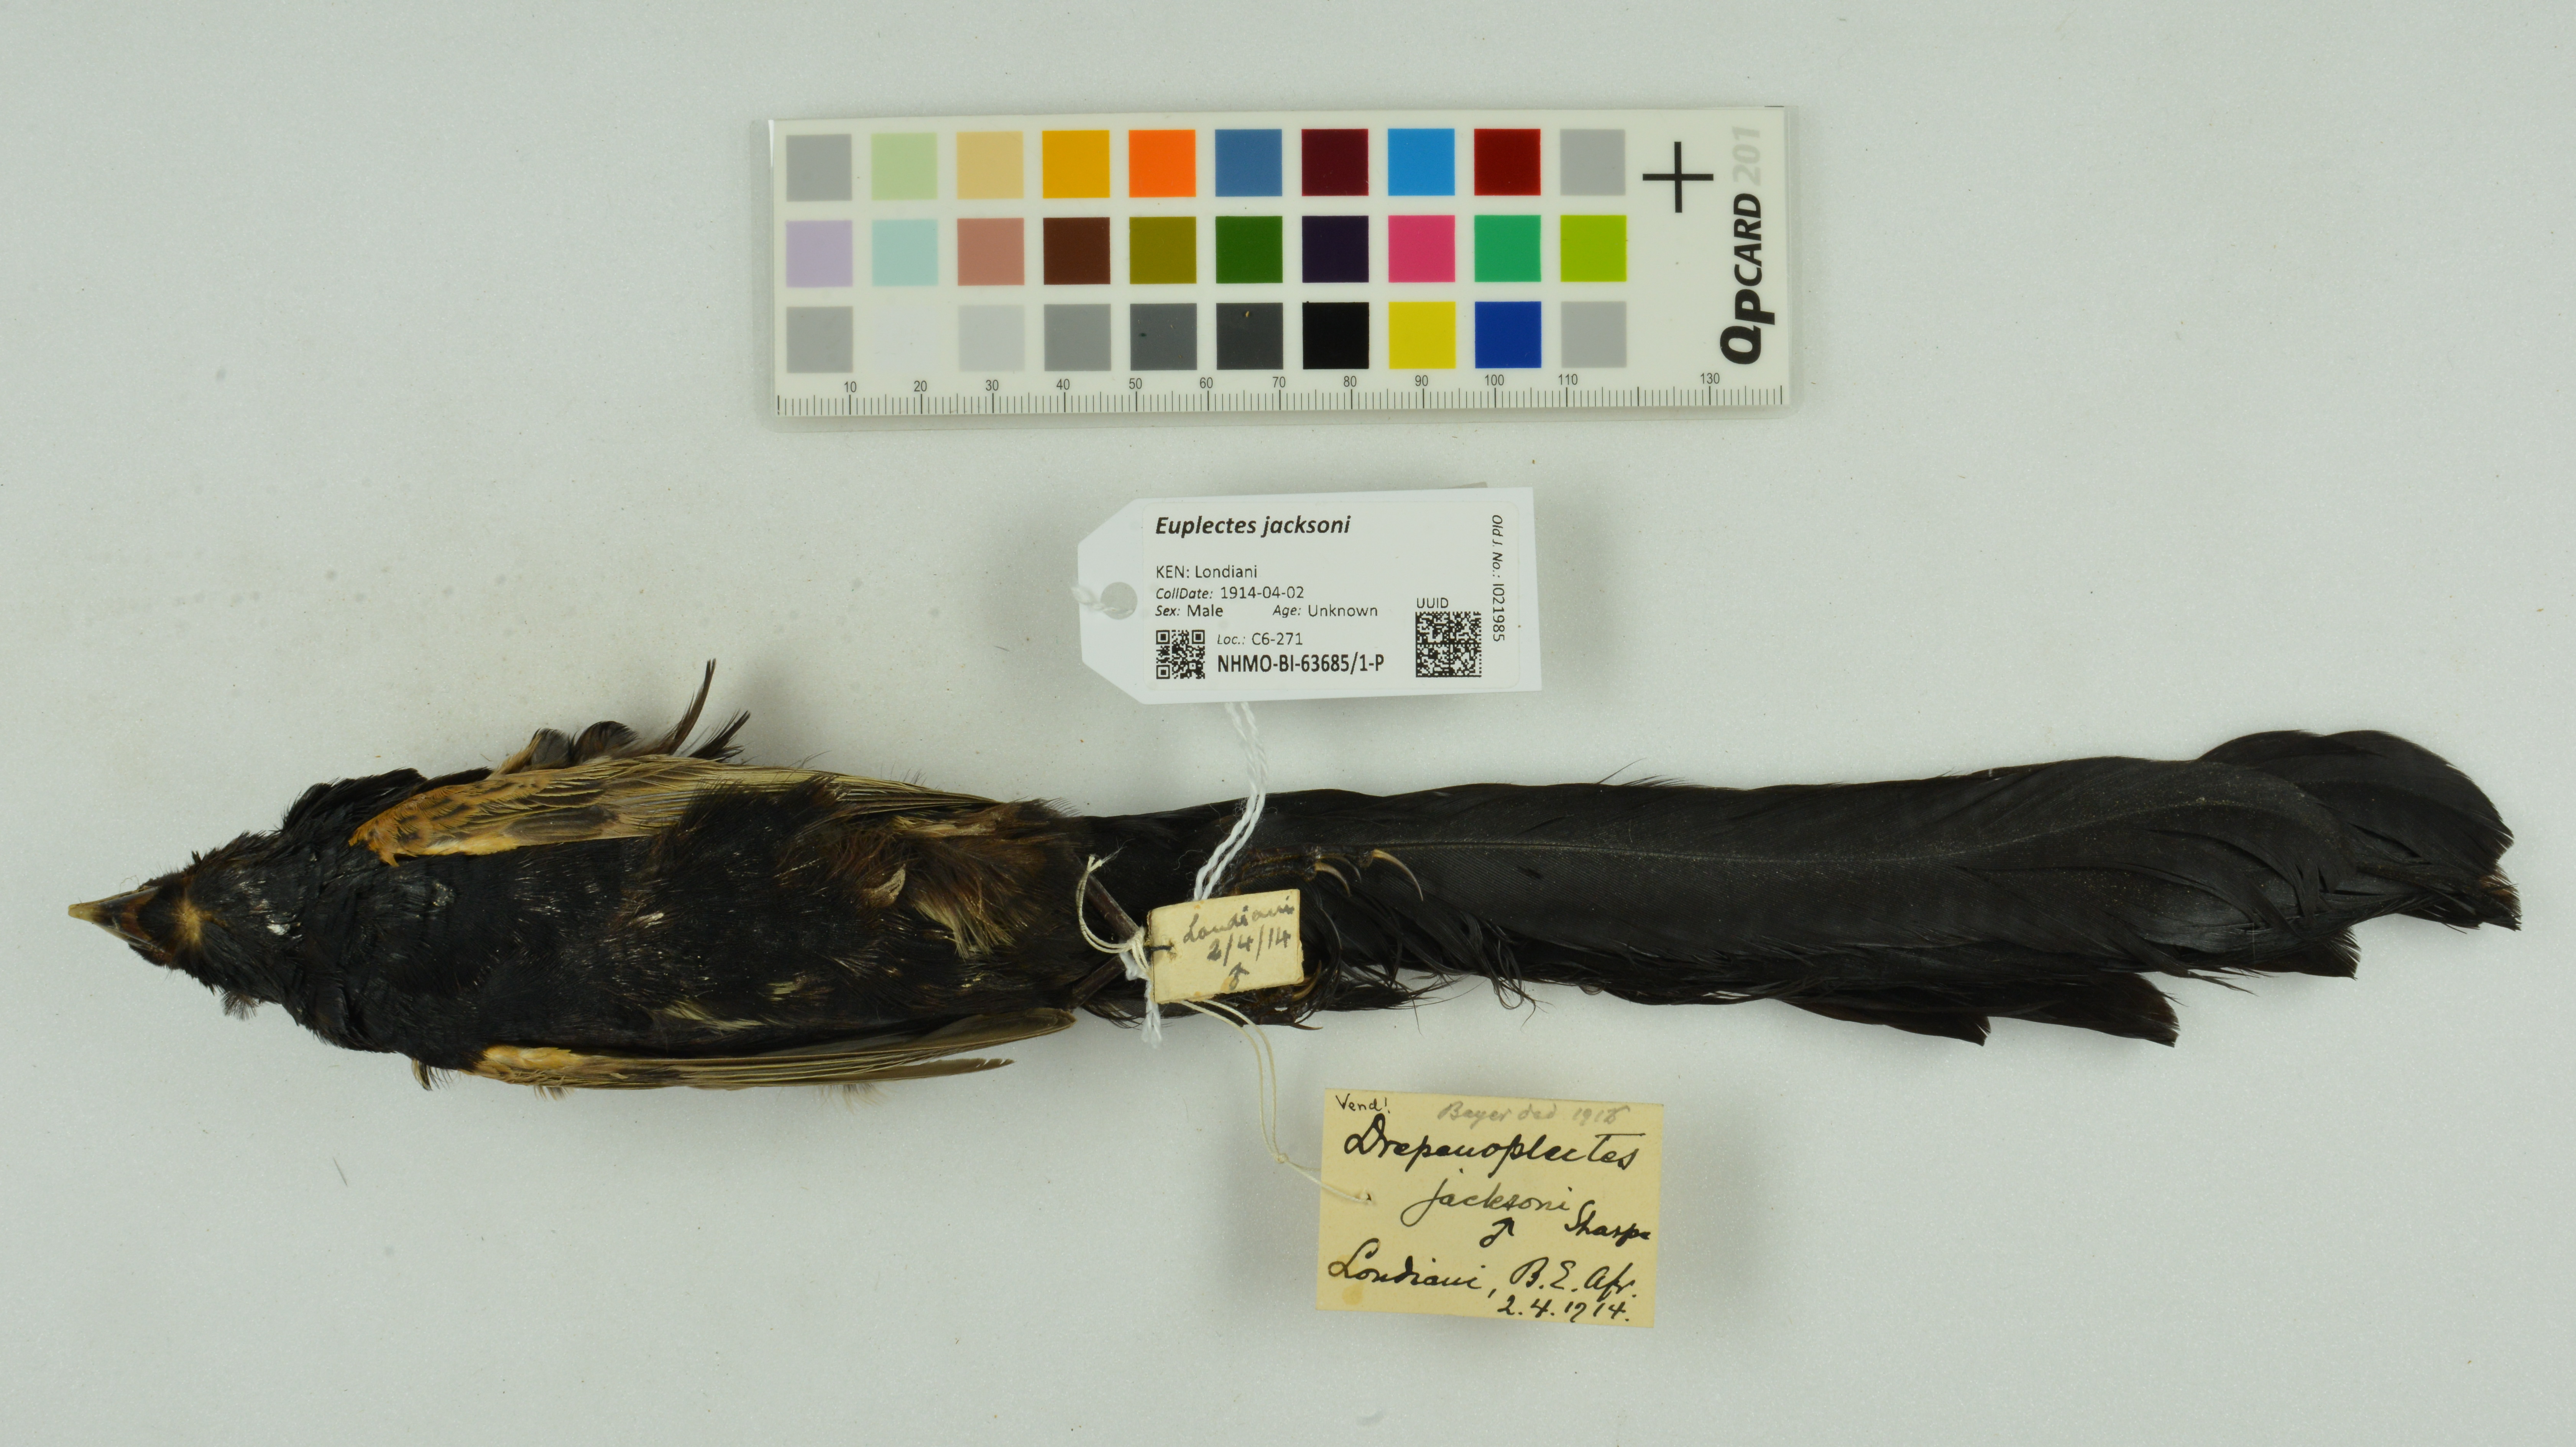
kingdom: Animalia
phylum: Chordata
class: Aves
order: Passeriformes
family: Ploceidae
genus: Euplectes
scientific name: Euplectes jacksoni
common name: Jackson's widowbird
